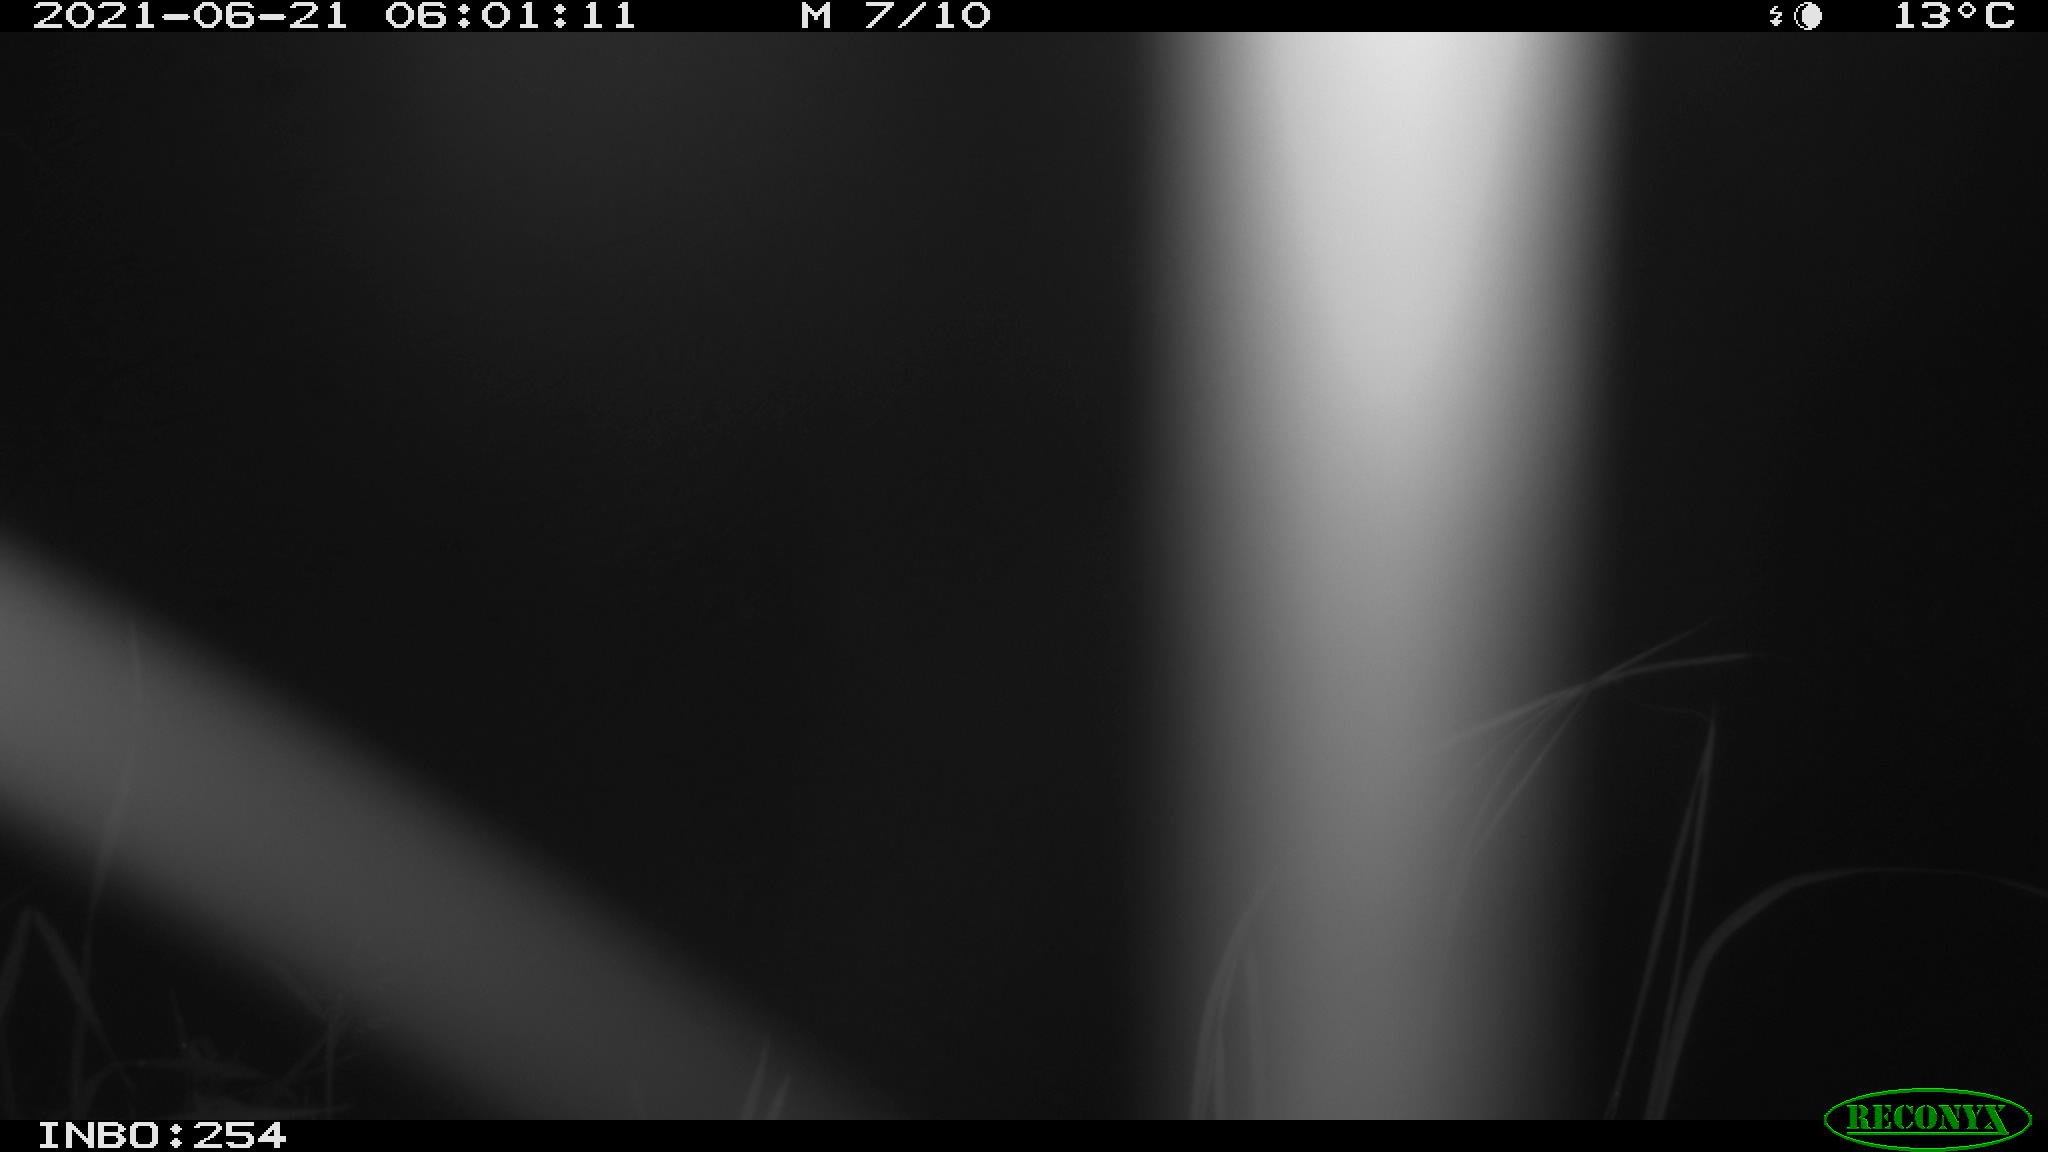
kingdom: Animalia
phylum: Chordata
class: Aves
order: Anseriformes
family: Anatidae
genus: Anas
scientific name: Anas platyrhynchos
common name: Mallard
